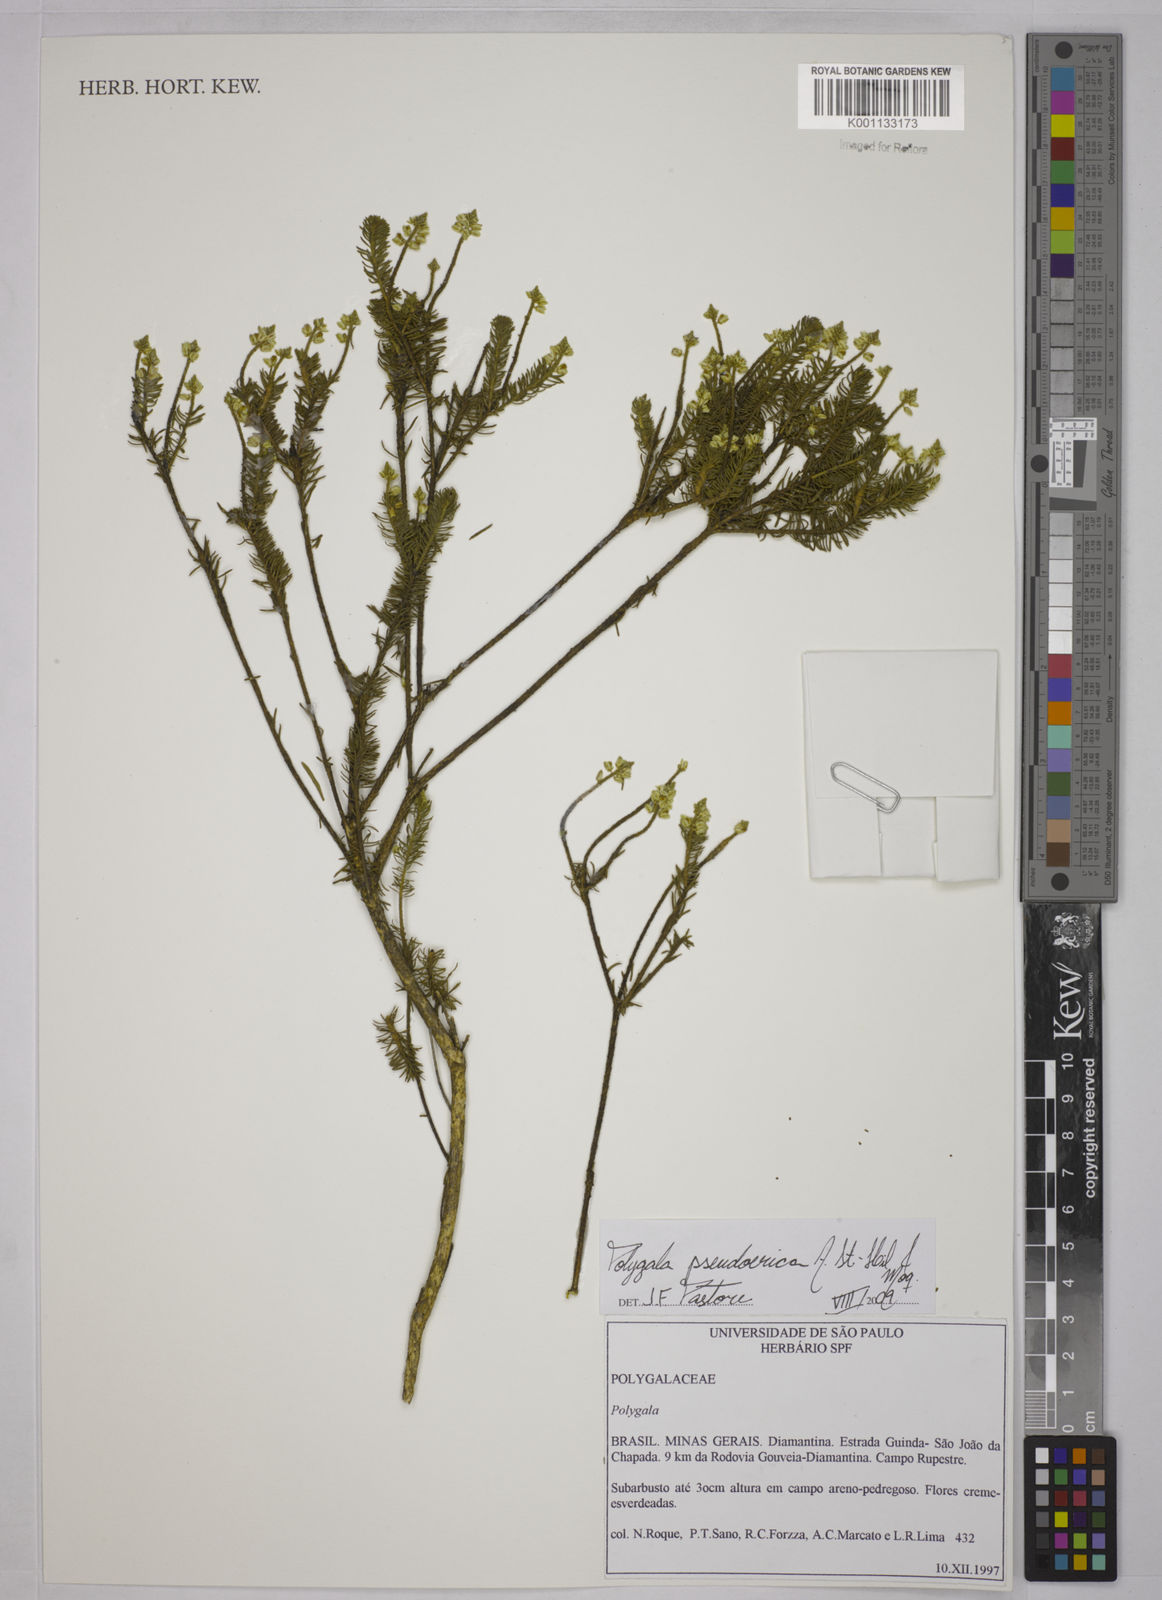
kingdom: Plantae
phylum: Tracheophyta
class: Magnoliopsida
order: Fabales
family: Polygalaceae
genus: Polygala
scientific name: Polygala pseudoerica
